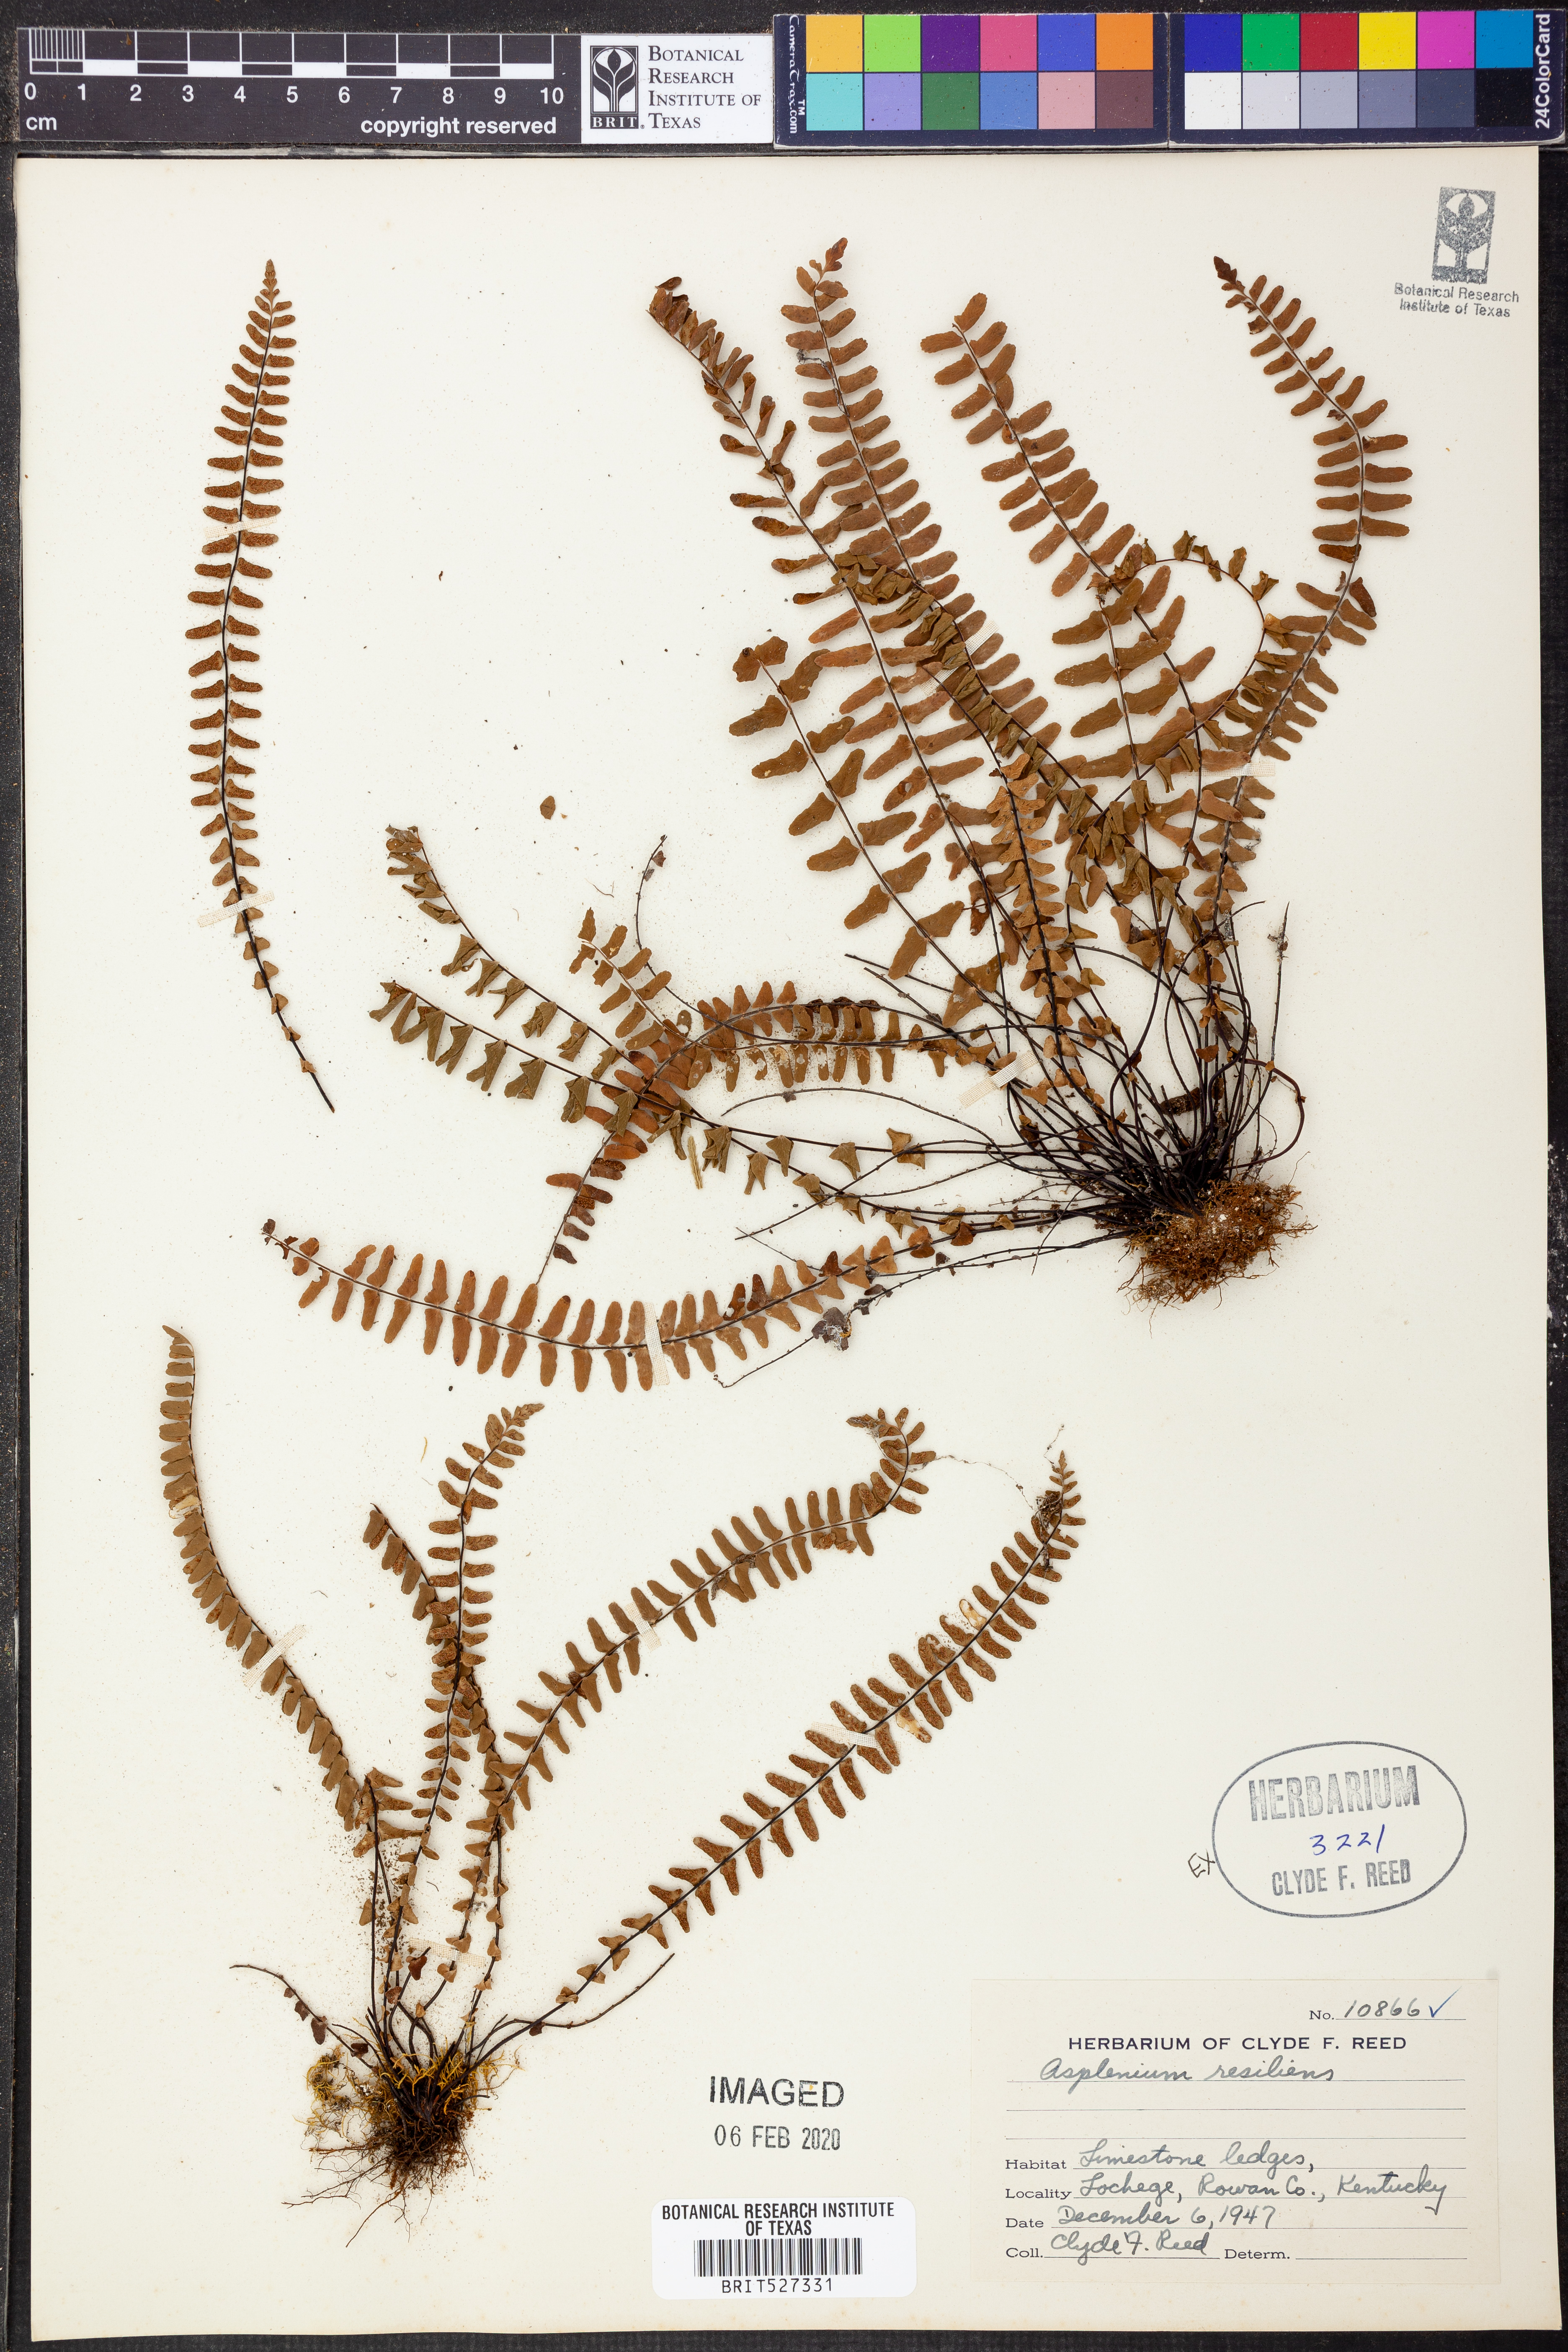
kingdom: Plantae
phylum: Tracheophyta
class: Polypodiopsida
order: Polypodiales
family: Aspleniaceae
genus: Asplenium
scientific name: Asplenium resiliens
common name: Blackstem spleenwort
